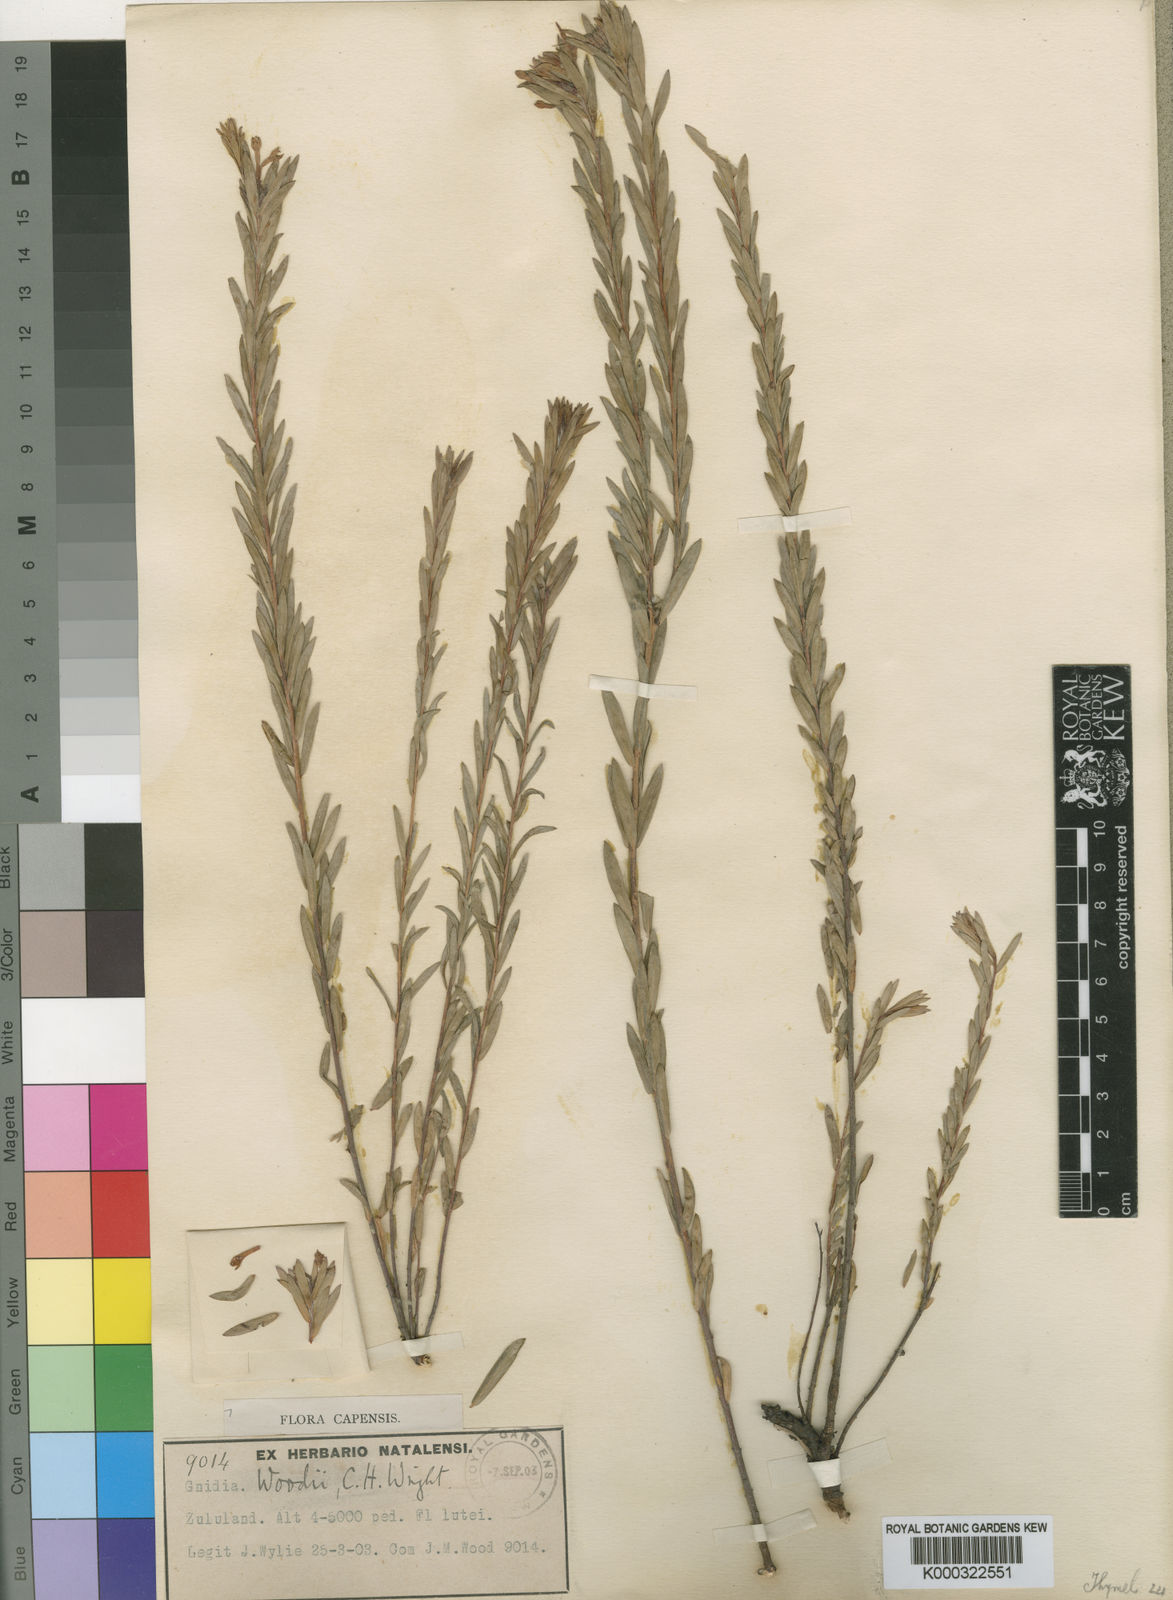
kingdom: Plantae
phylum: Tracheophyta
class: Magnoliopsida
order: Malvales
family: Thymelaeaceae
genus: Gnidia
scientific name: Gnidia woodii
